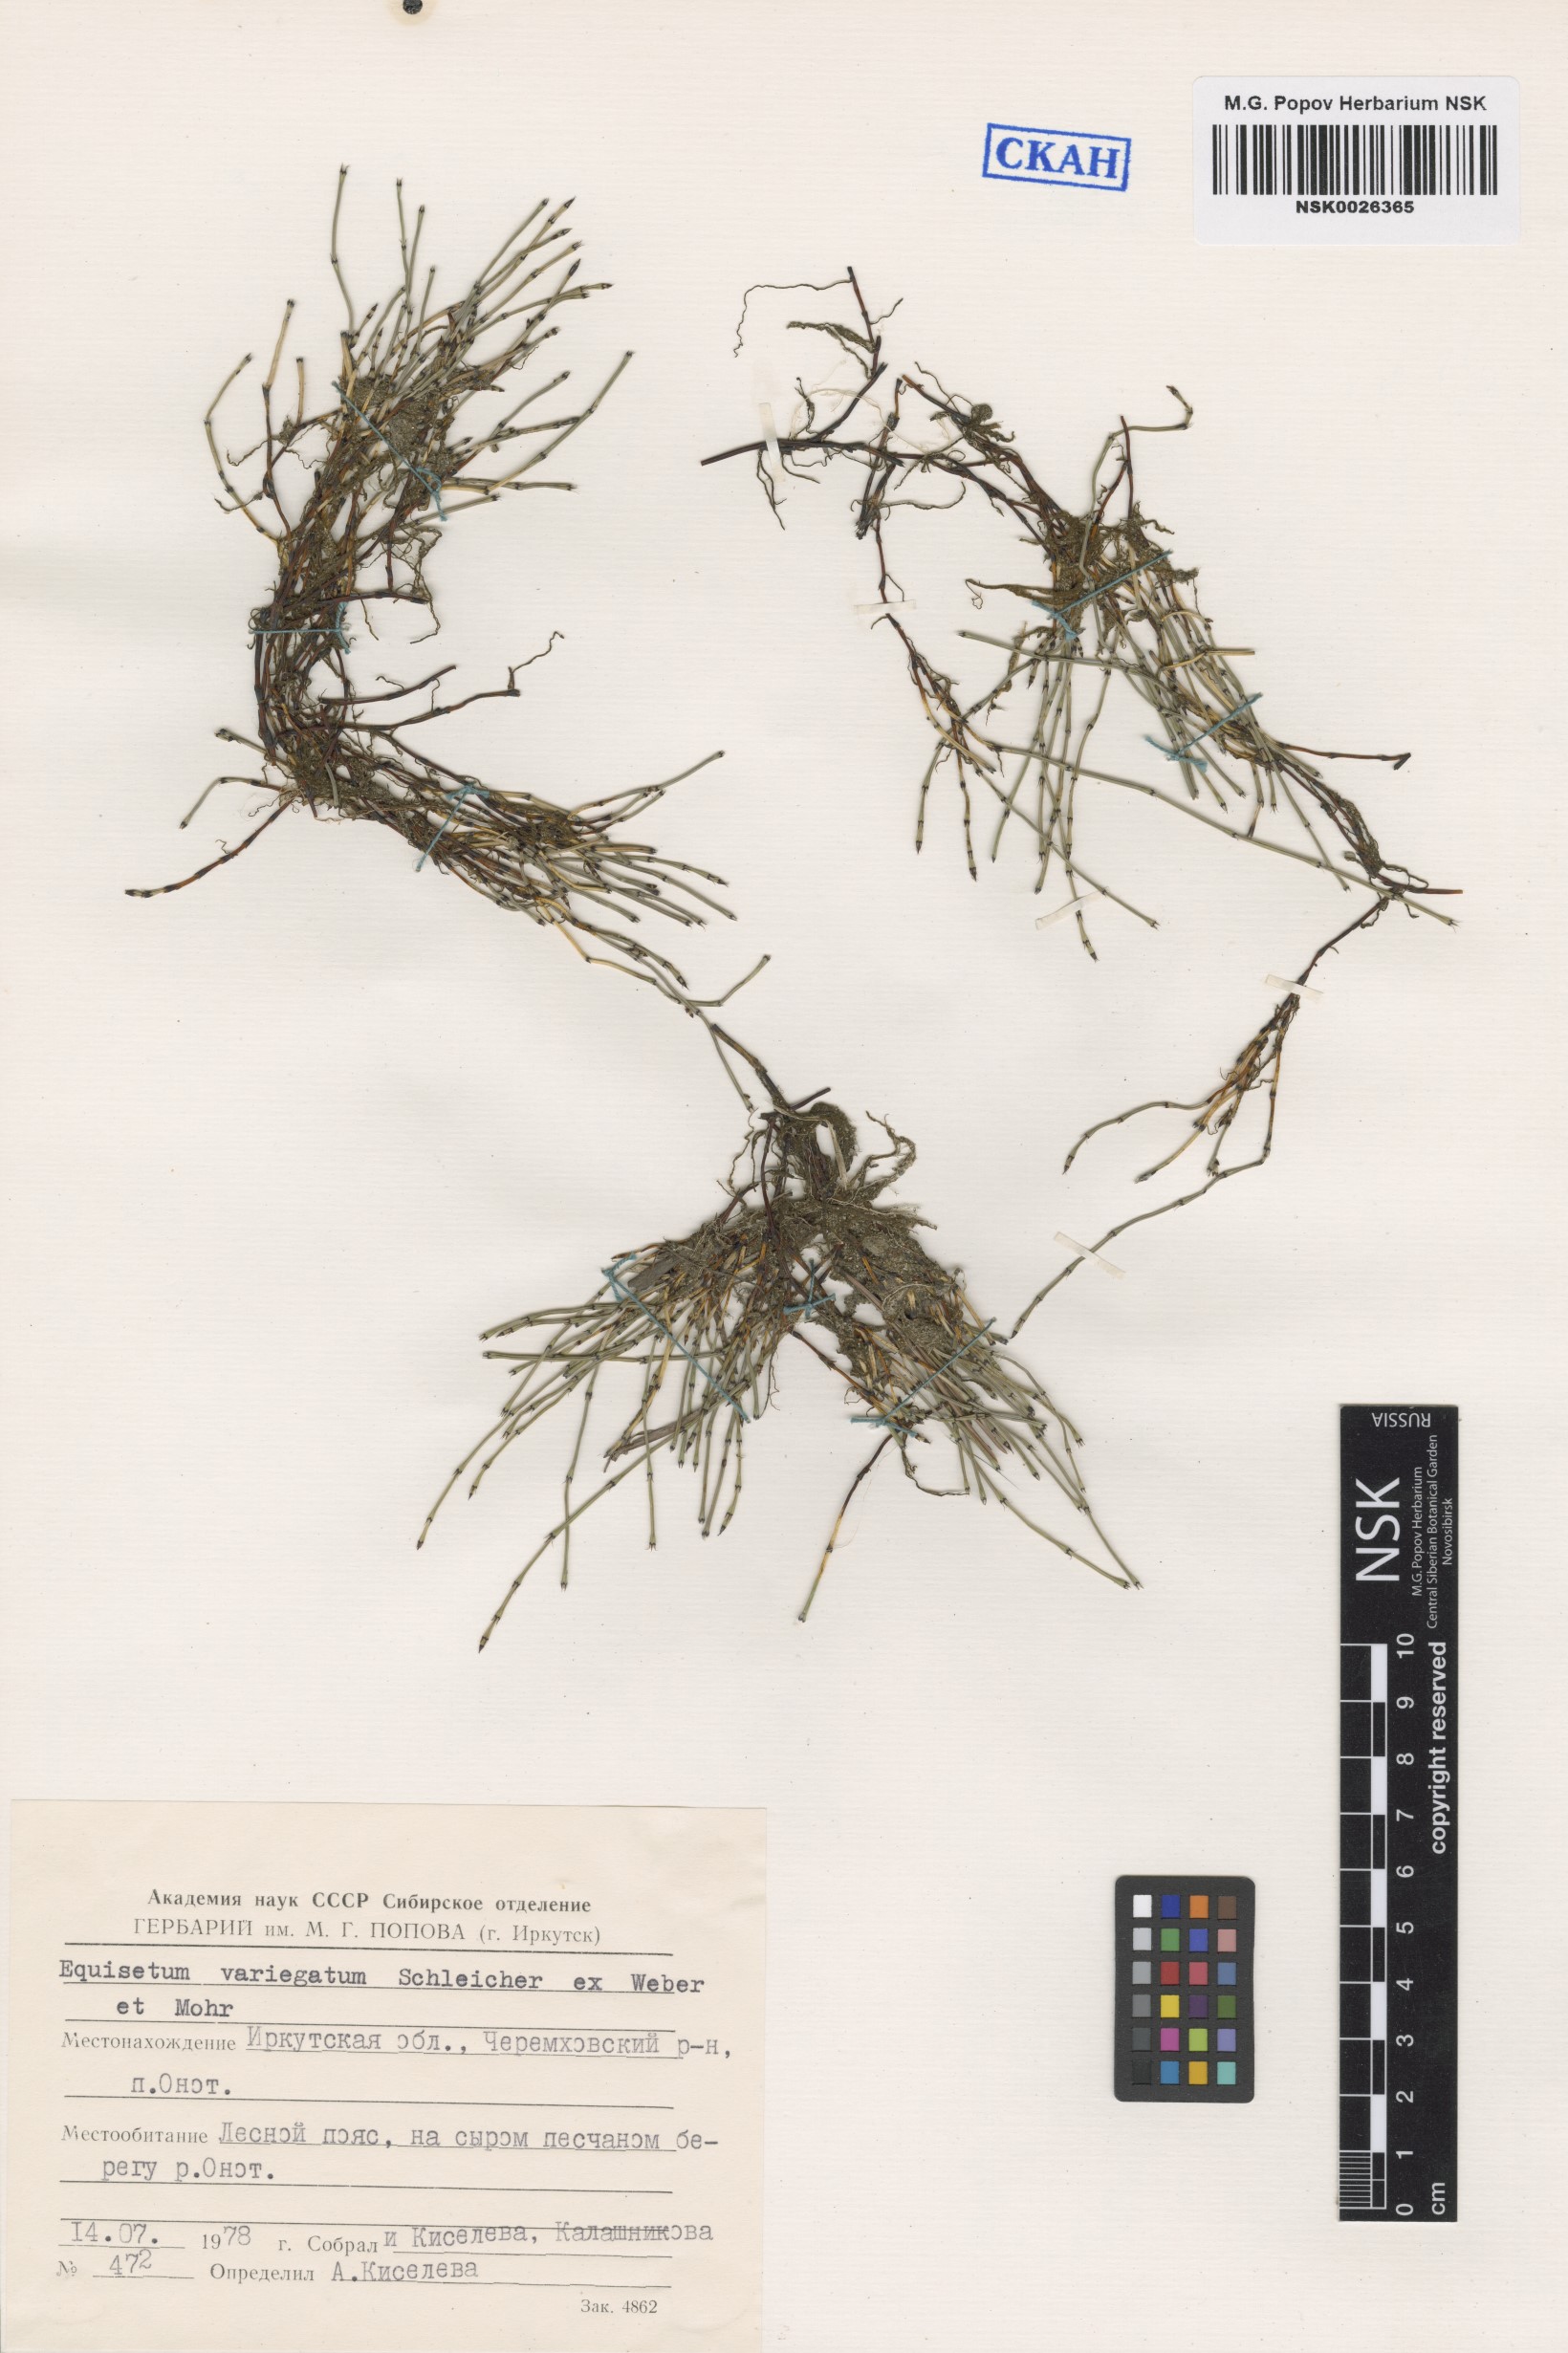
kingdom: Plantae
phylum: Tracheophyta
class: Polypodiopsida
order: Equisetales
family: Equisetaceae
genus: Equisetum
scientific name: Equisetum variegatum
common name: Variegated horsetail
